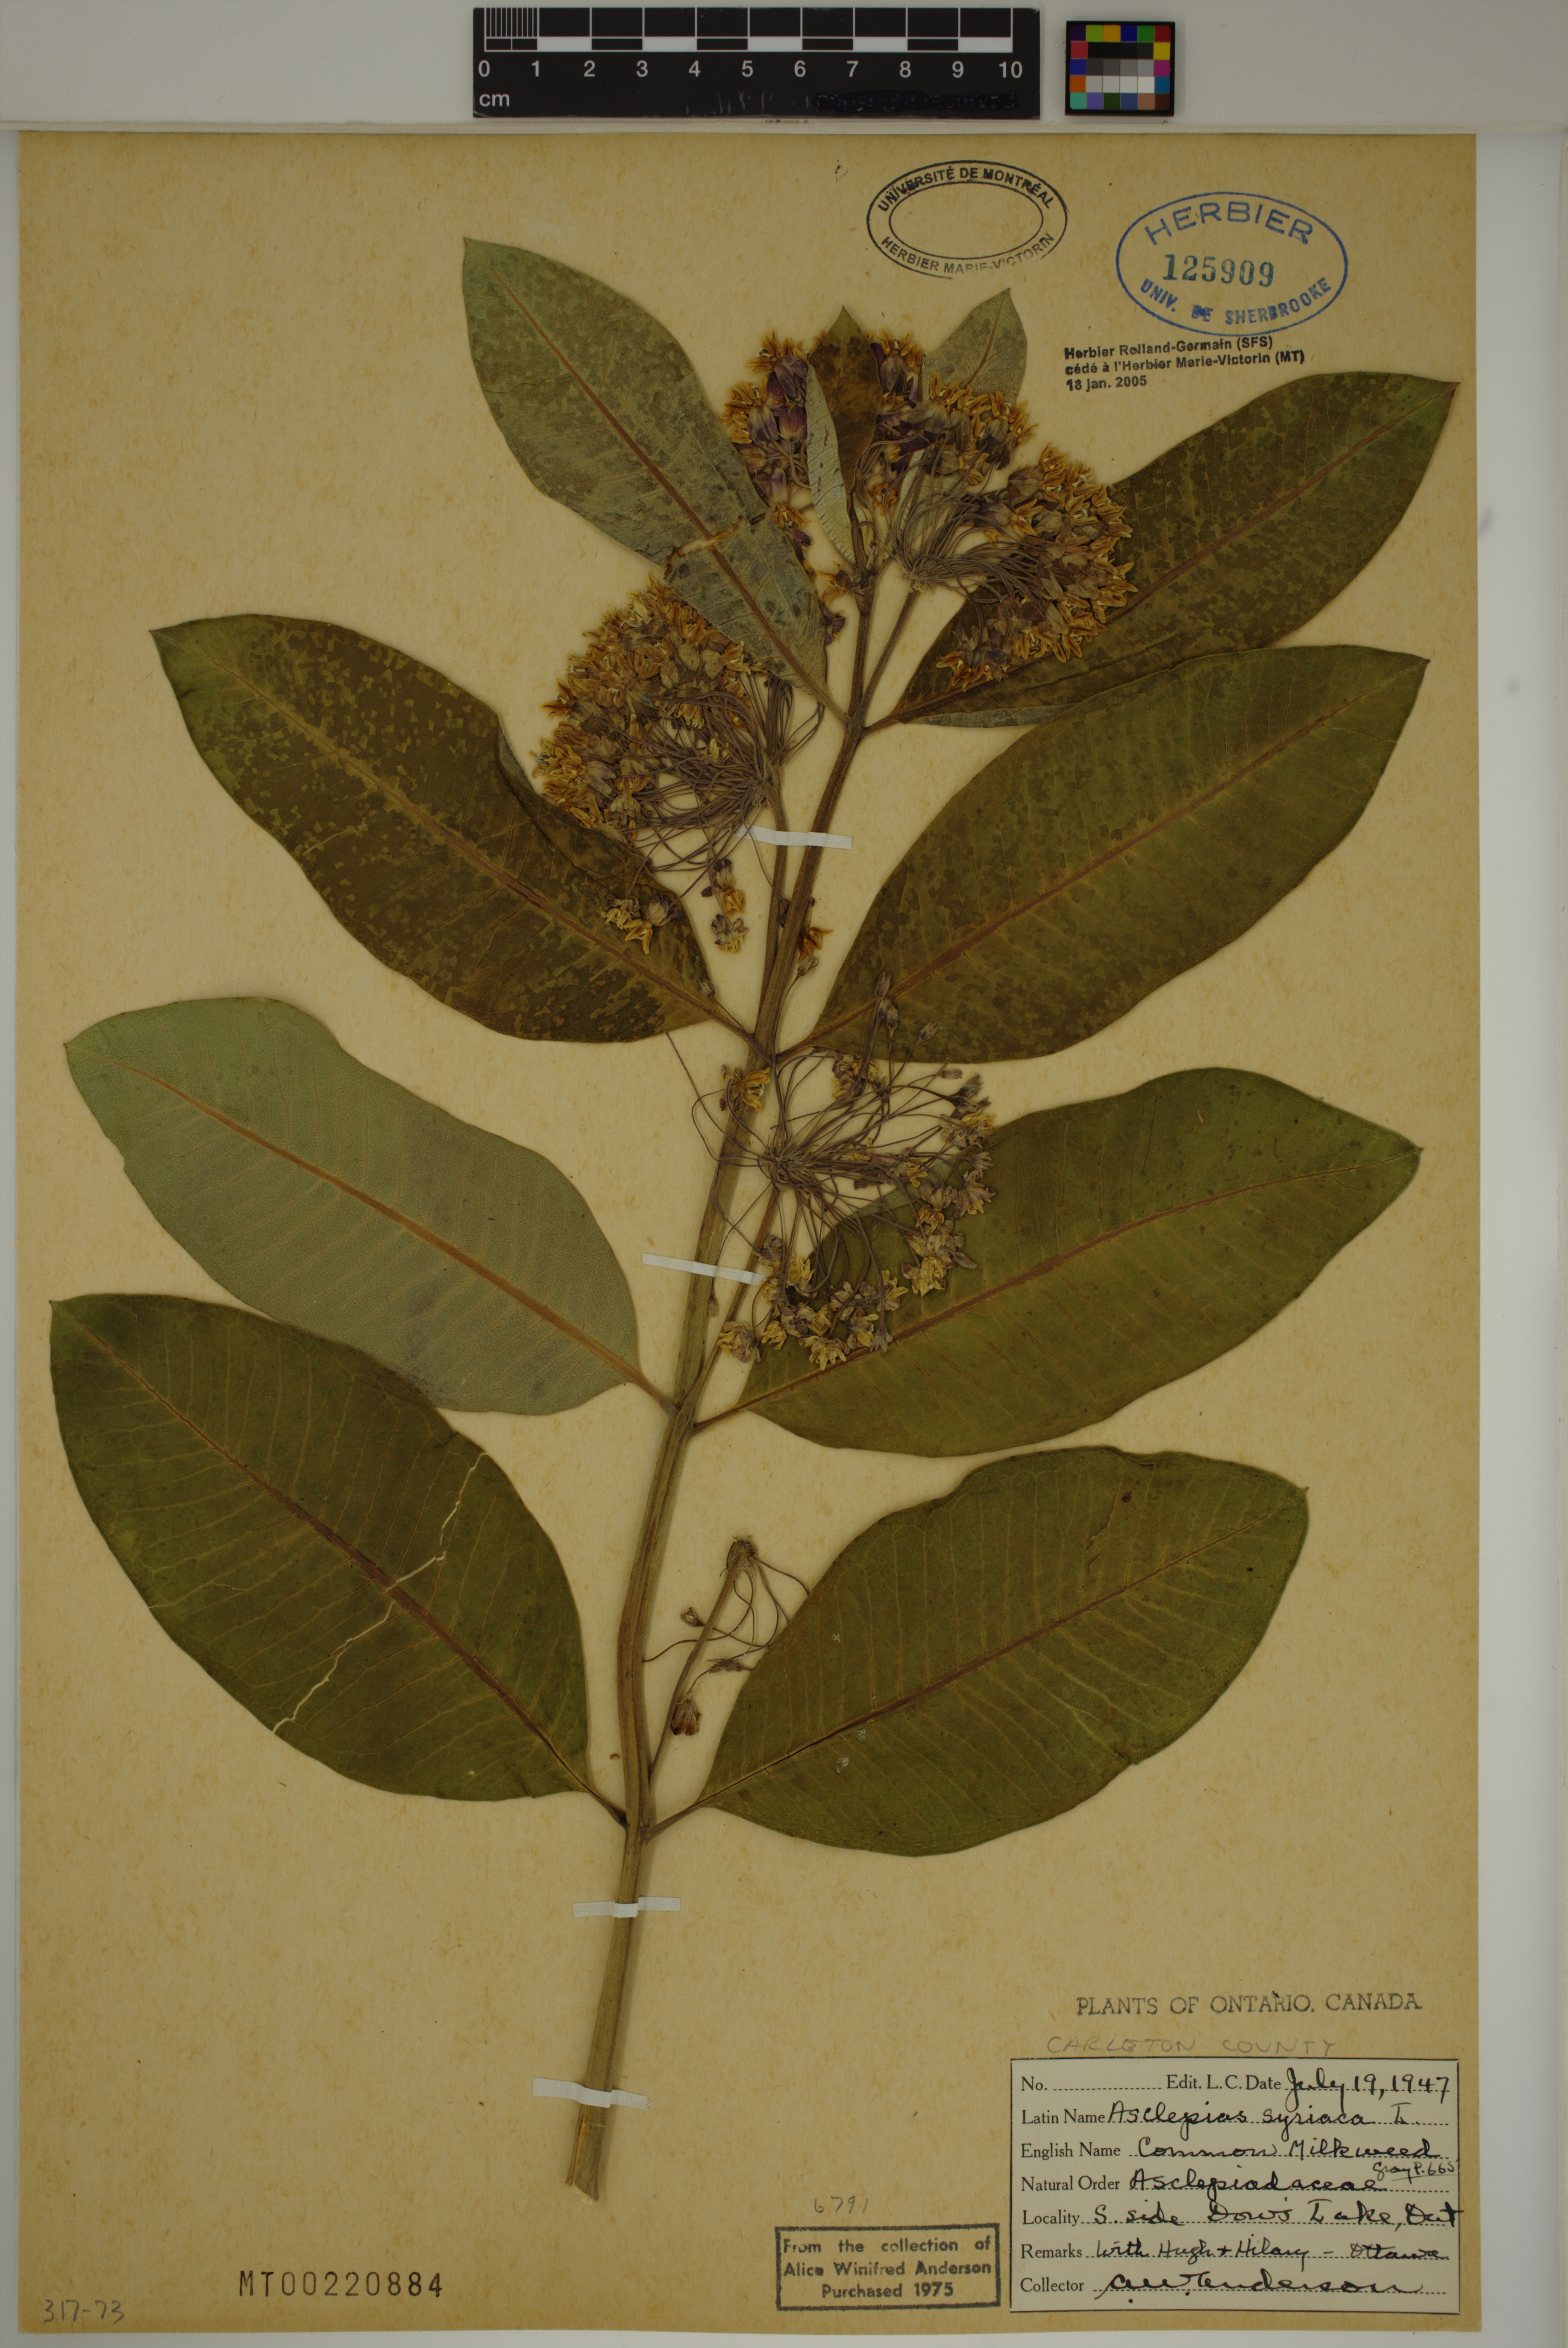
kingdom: Plantae
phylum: Tracheophyta
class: Magnoliopsida
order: Gentianales
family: Apocynaceae
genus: Asclepias
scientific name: Asclepias syriaca
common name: Common milkweed
